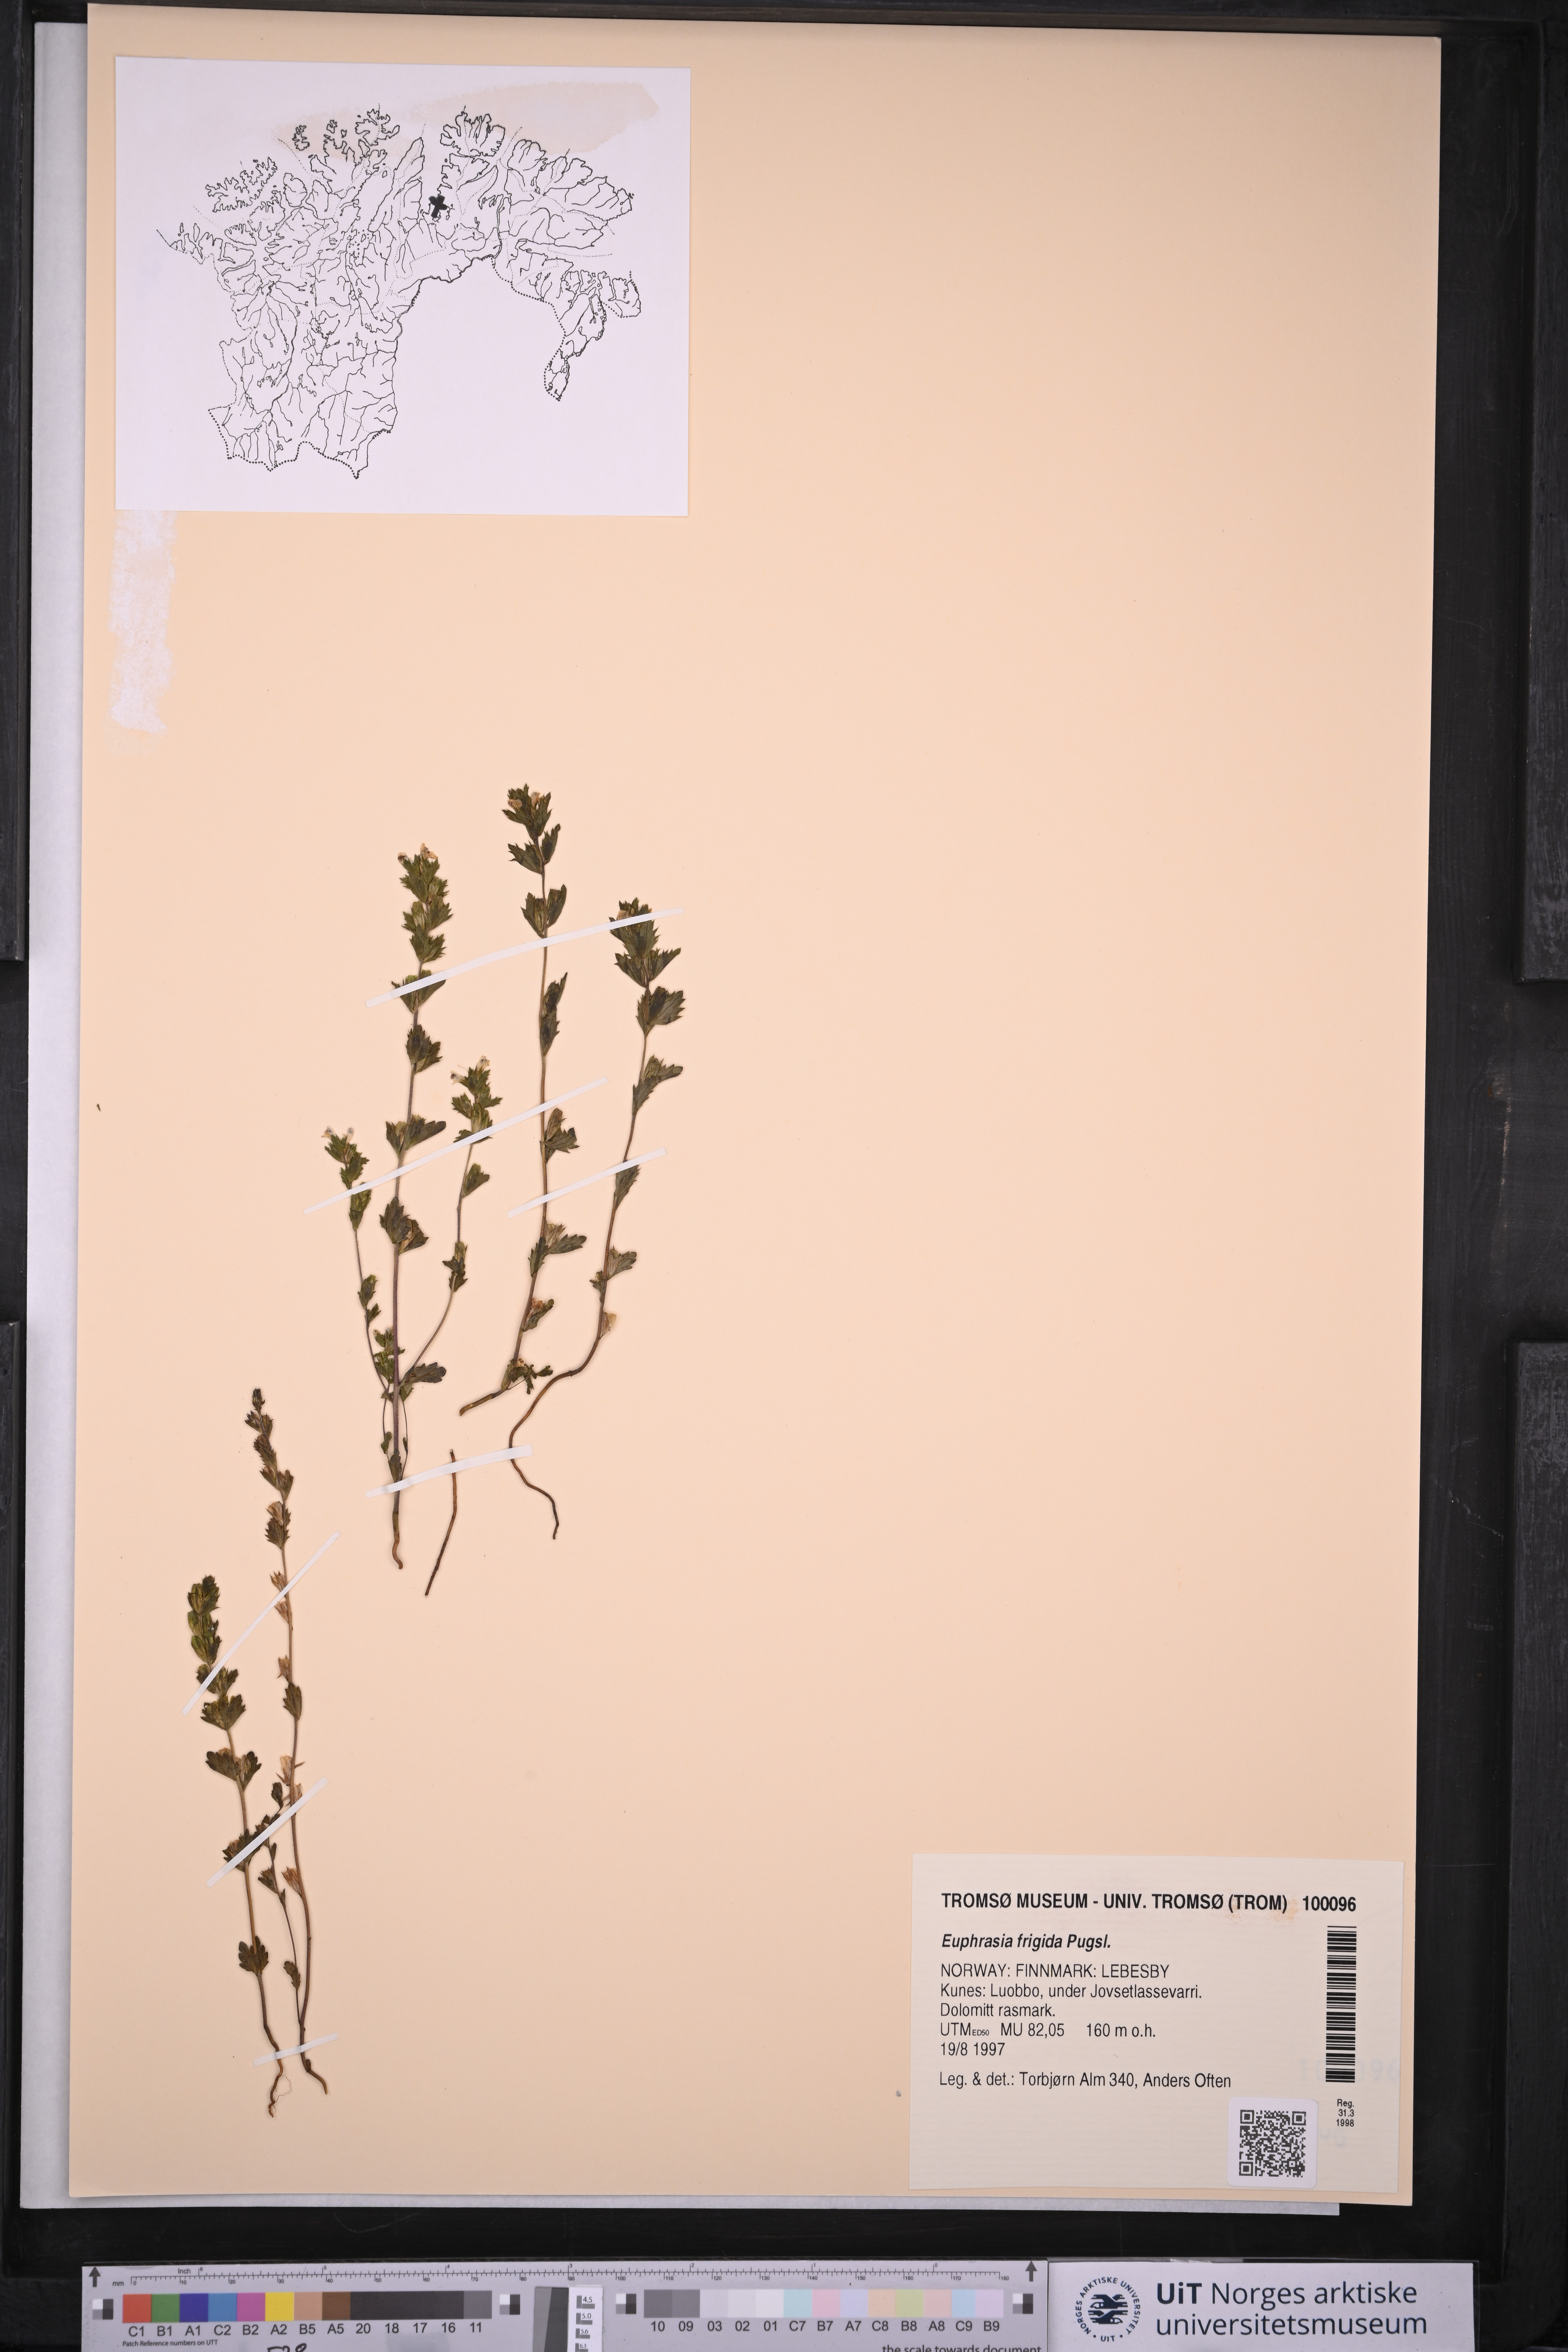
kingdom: Plantae
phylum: Tracheophyta
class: Magnoliopsida
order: Lamiales
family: Orobanchaceae
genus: Euphrasia
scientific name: Euphrasia frigida
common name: An eyebright
